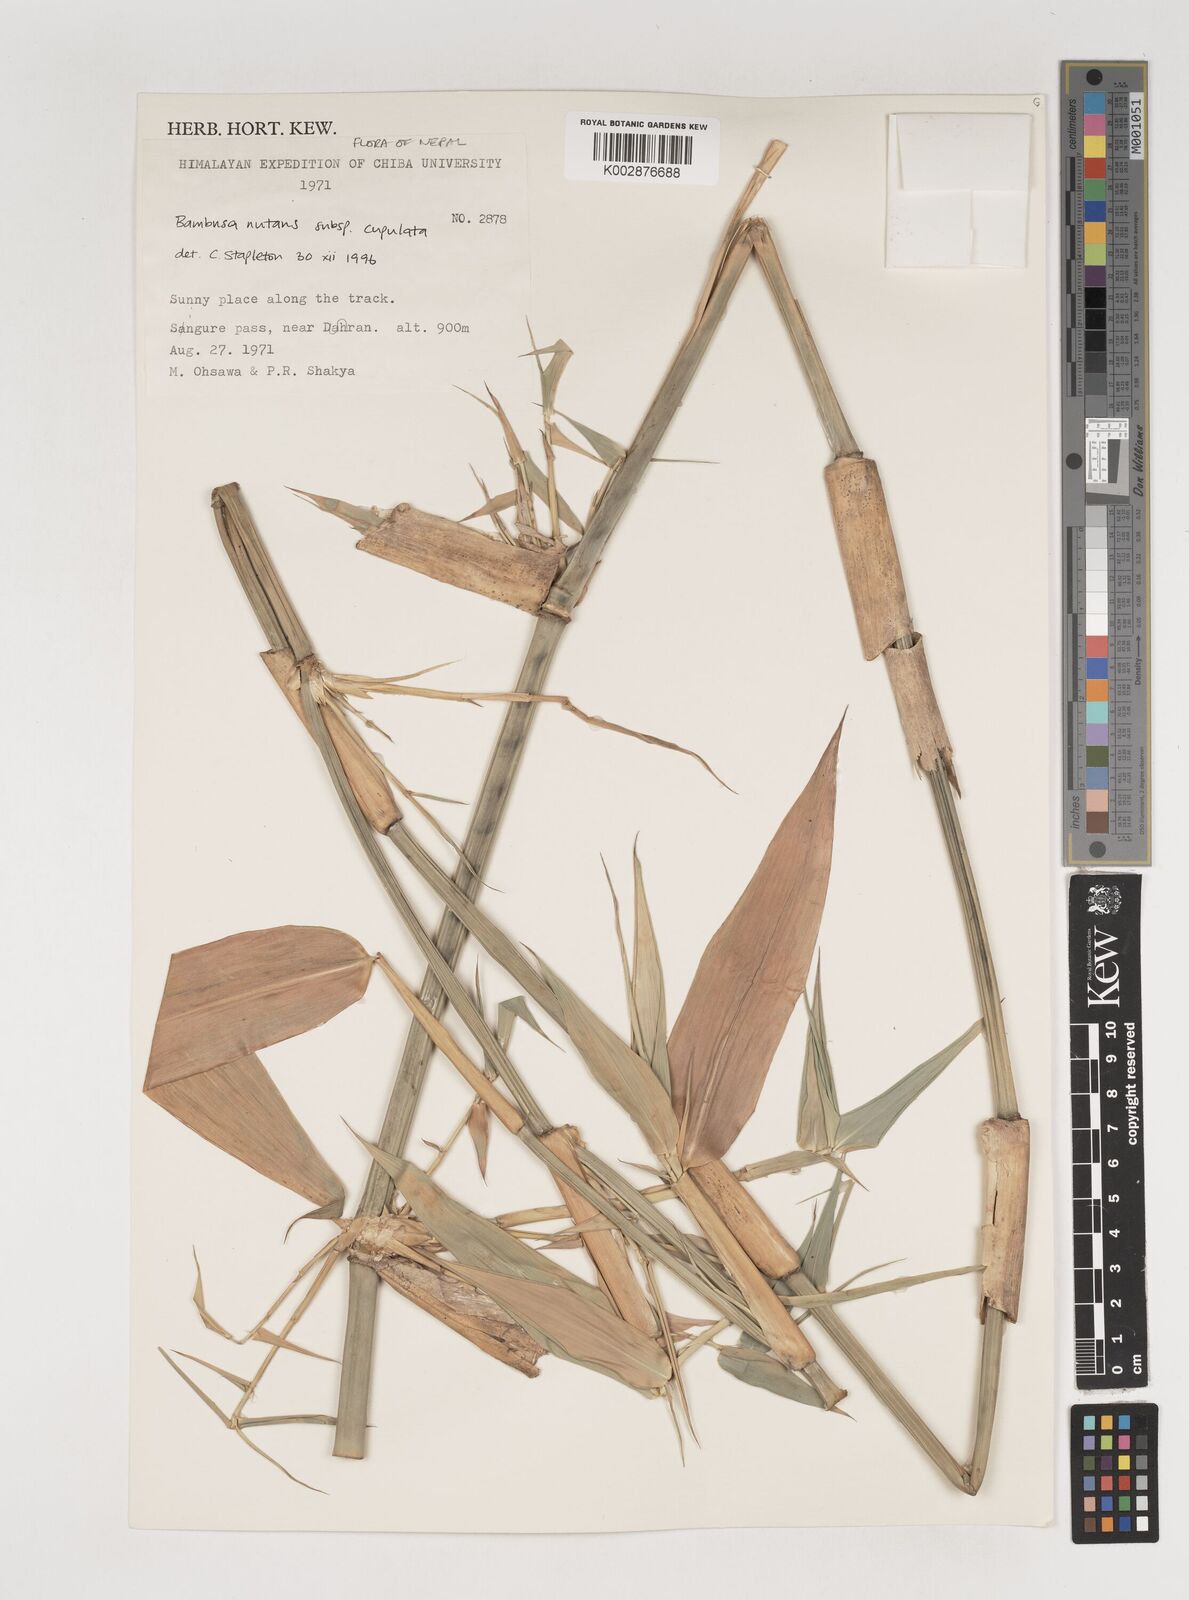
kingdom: Plantae
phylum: Tracheophyta
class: Liliopsida
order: Poales
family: Poaceae
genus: Bambusa
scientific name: Bambusa
